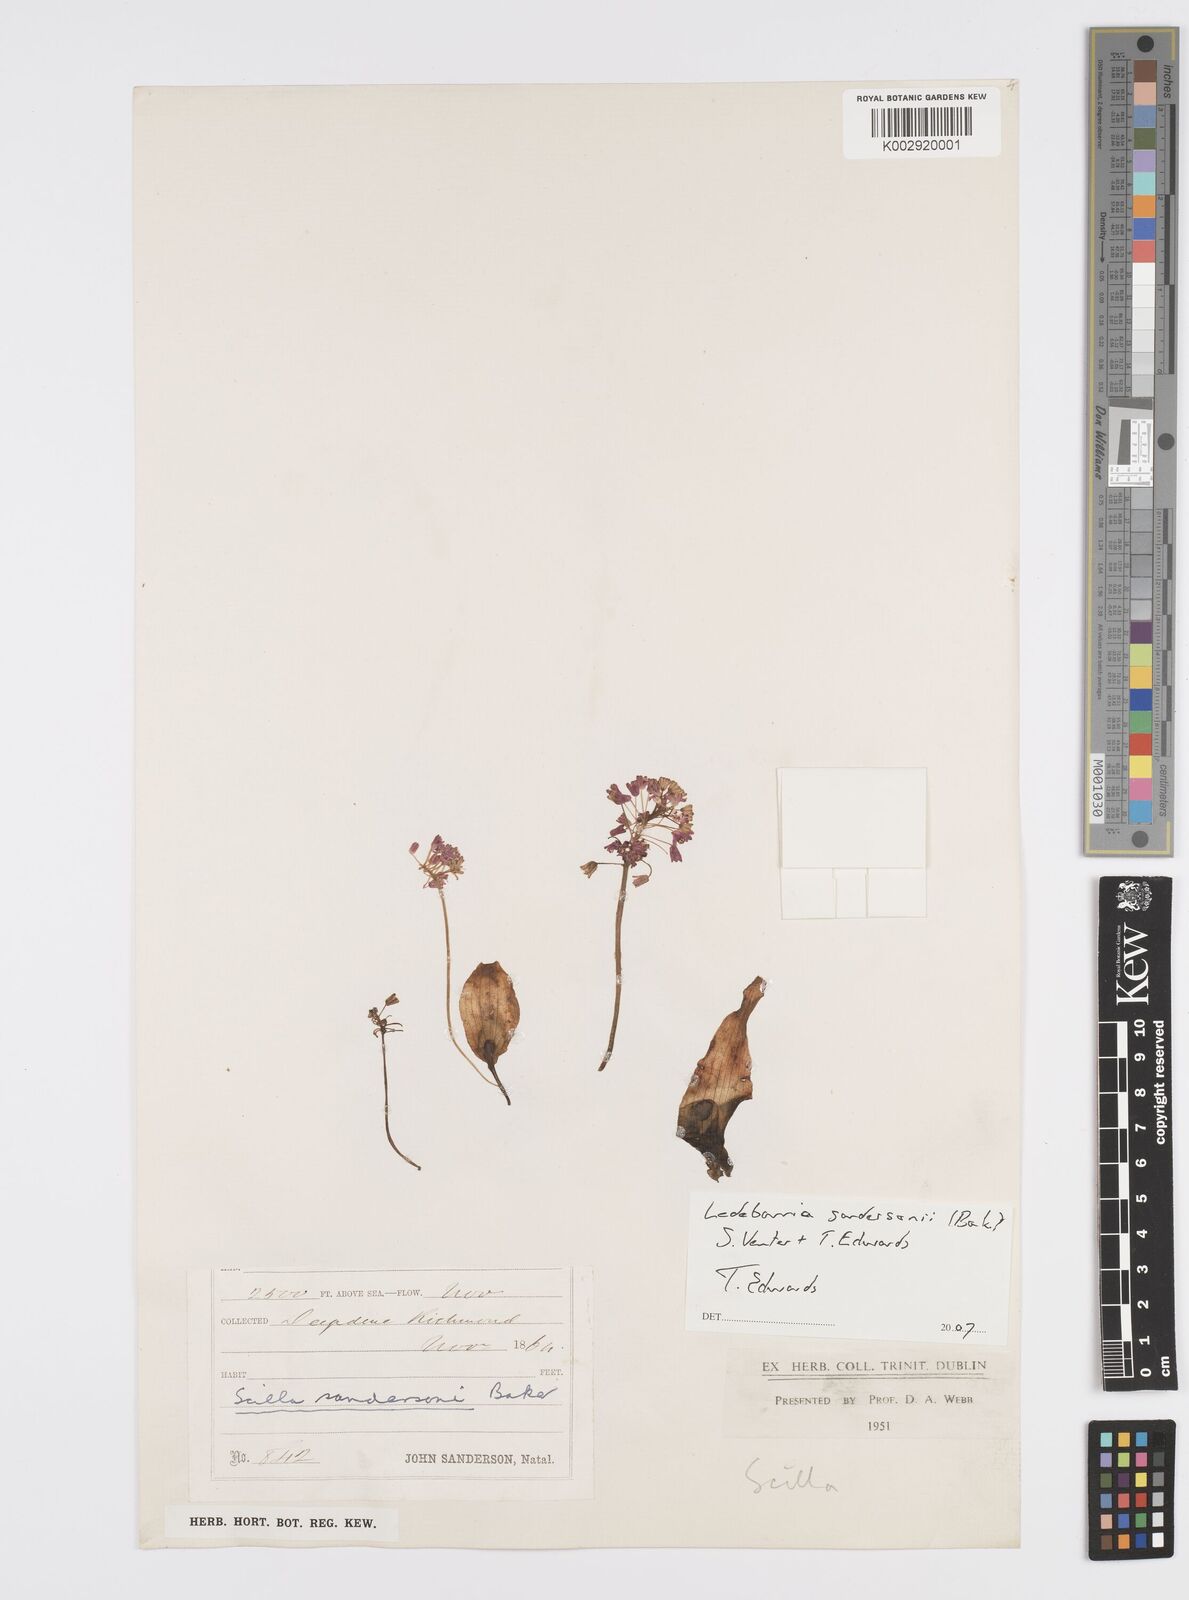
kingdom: Plantae
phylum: Tracheophyta
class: Liliopsida
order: Asparagales
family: Asparagaceae
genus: Ledebouria
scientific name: Ledebouria sandersonii
